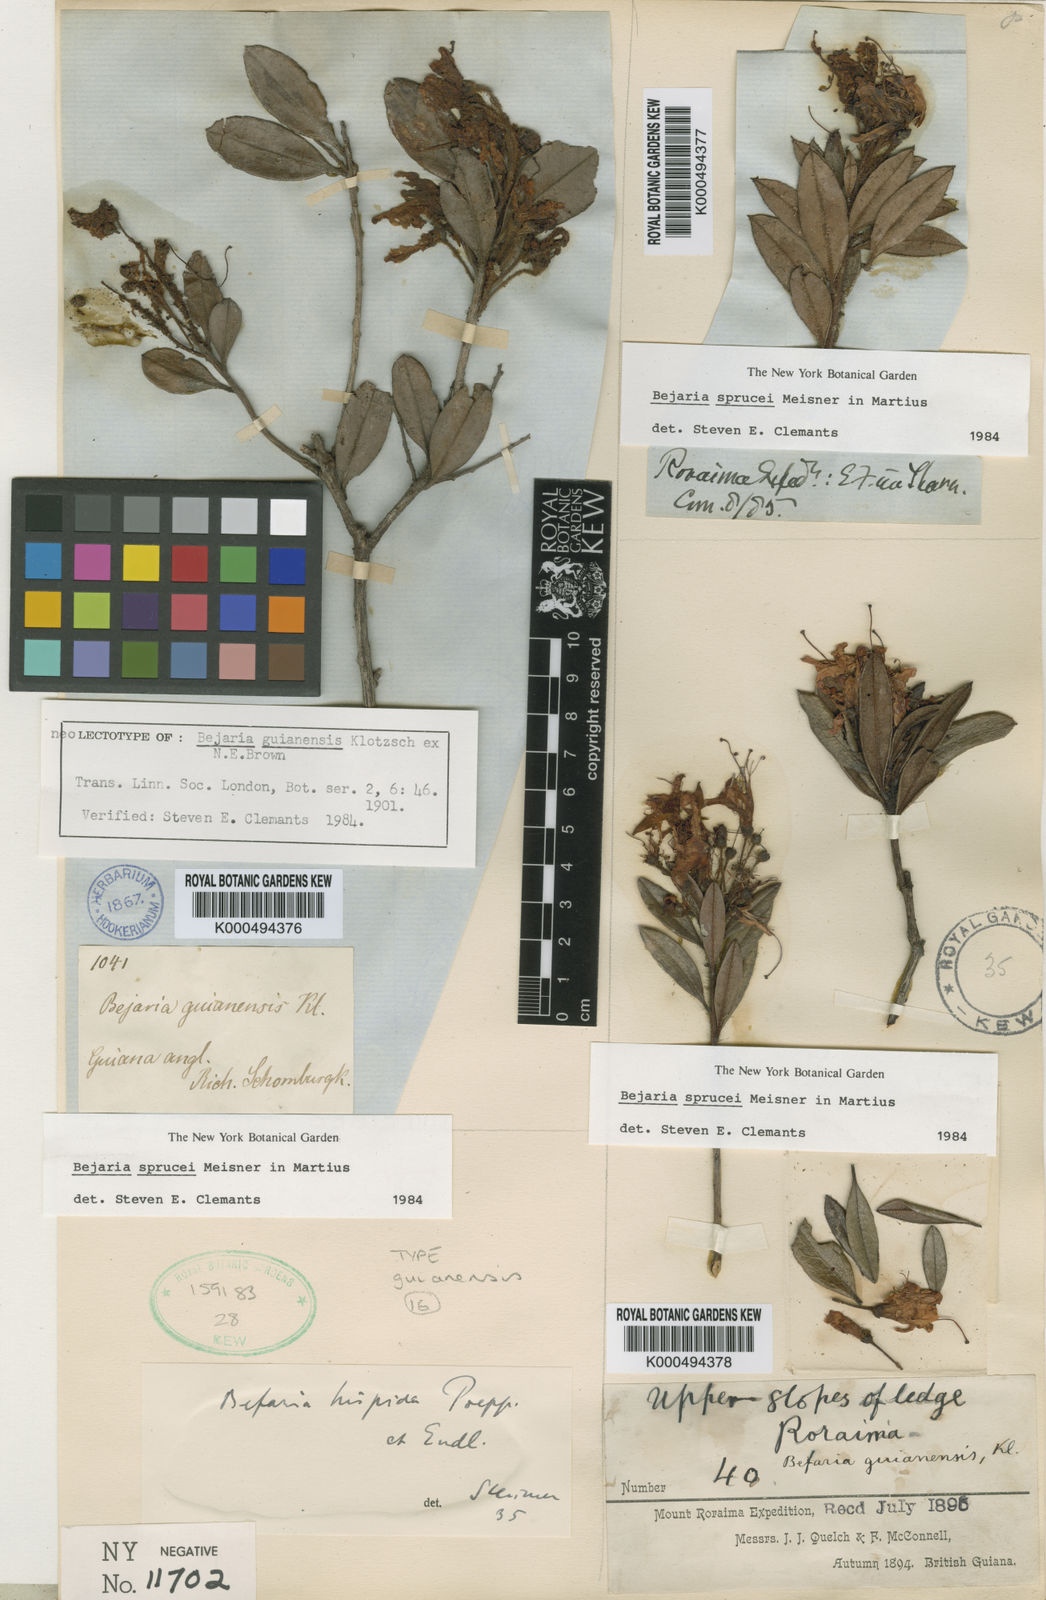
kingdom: Plantae
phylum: Tracheophyta
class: Magnoliopsida
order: Ericales
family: Ericaceae
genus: Bejaria
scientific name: Bejaria sprucei
